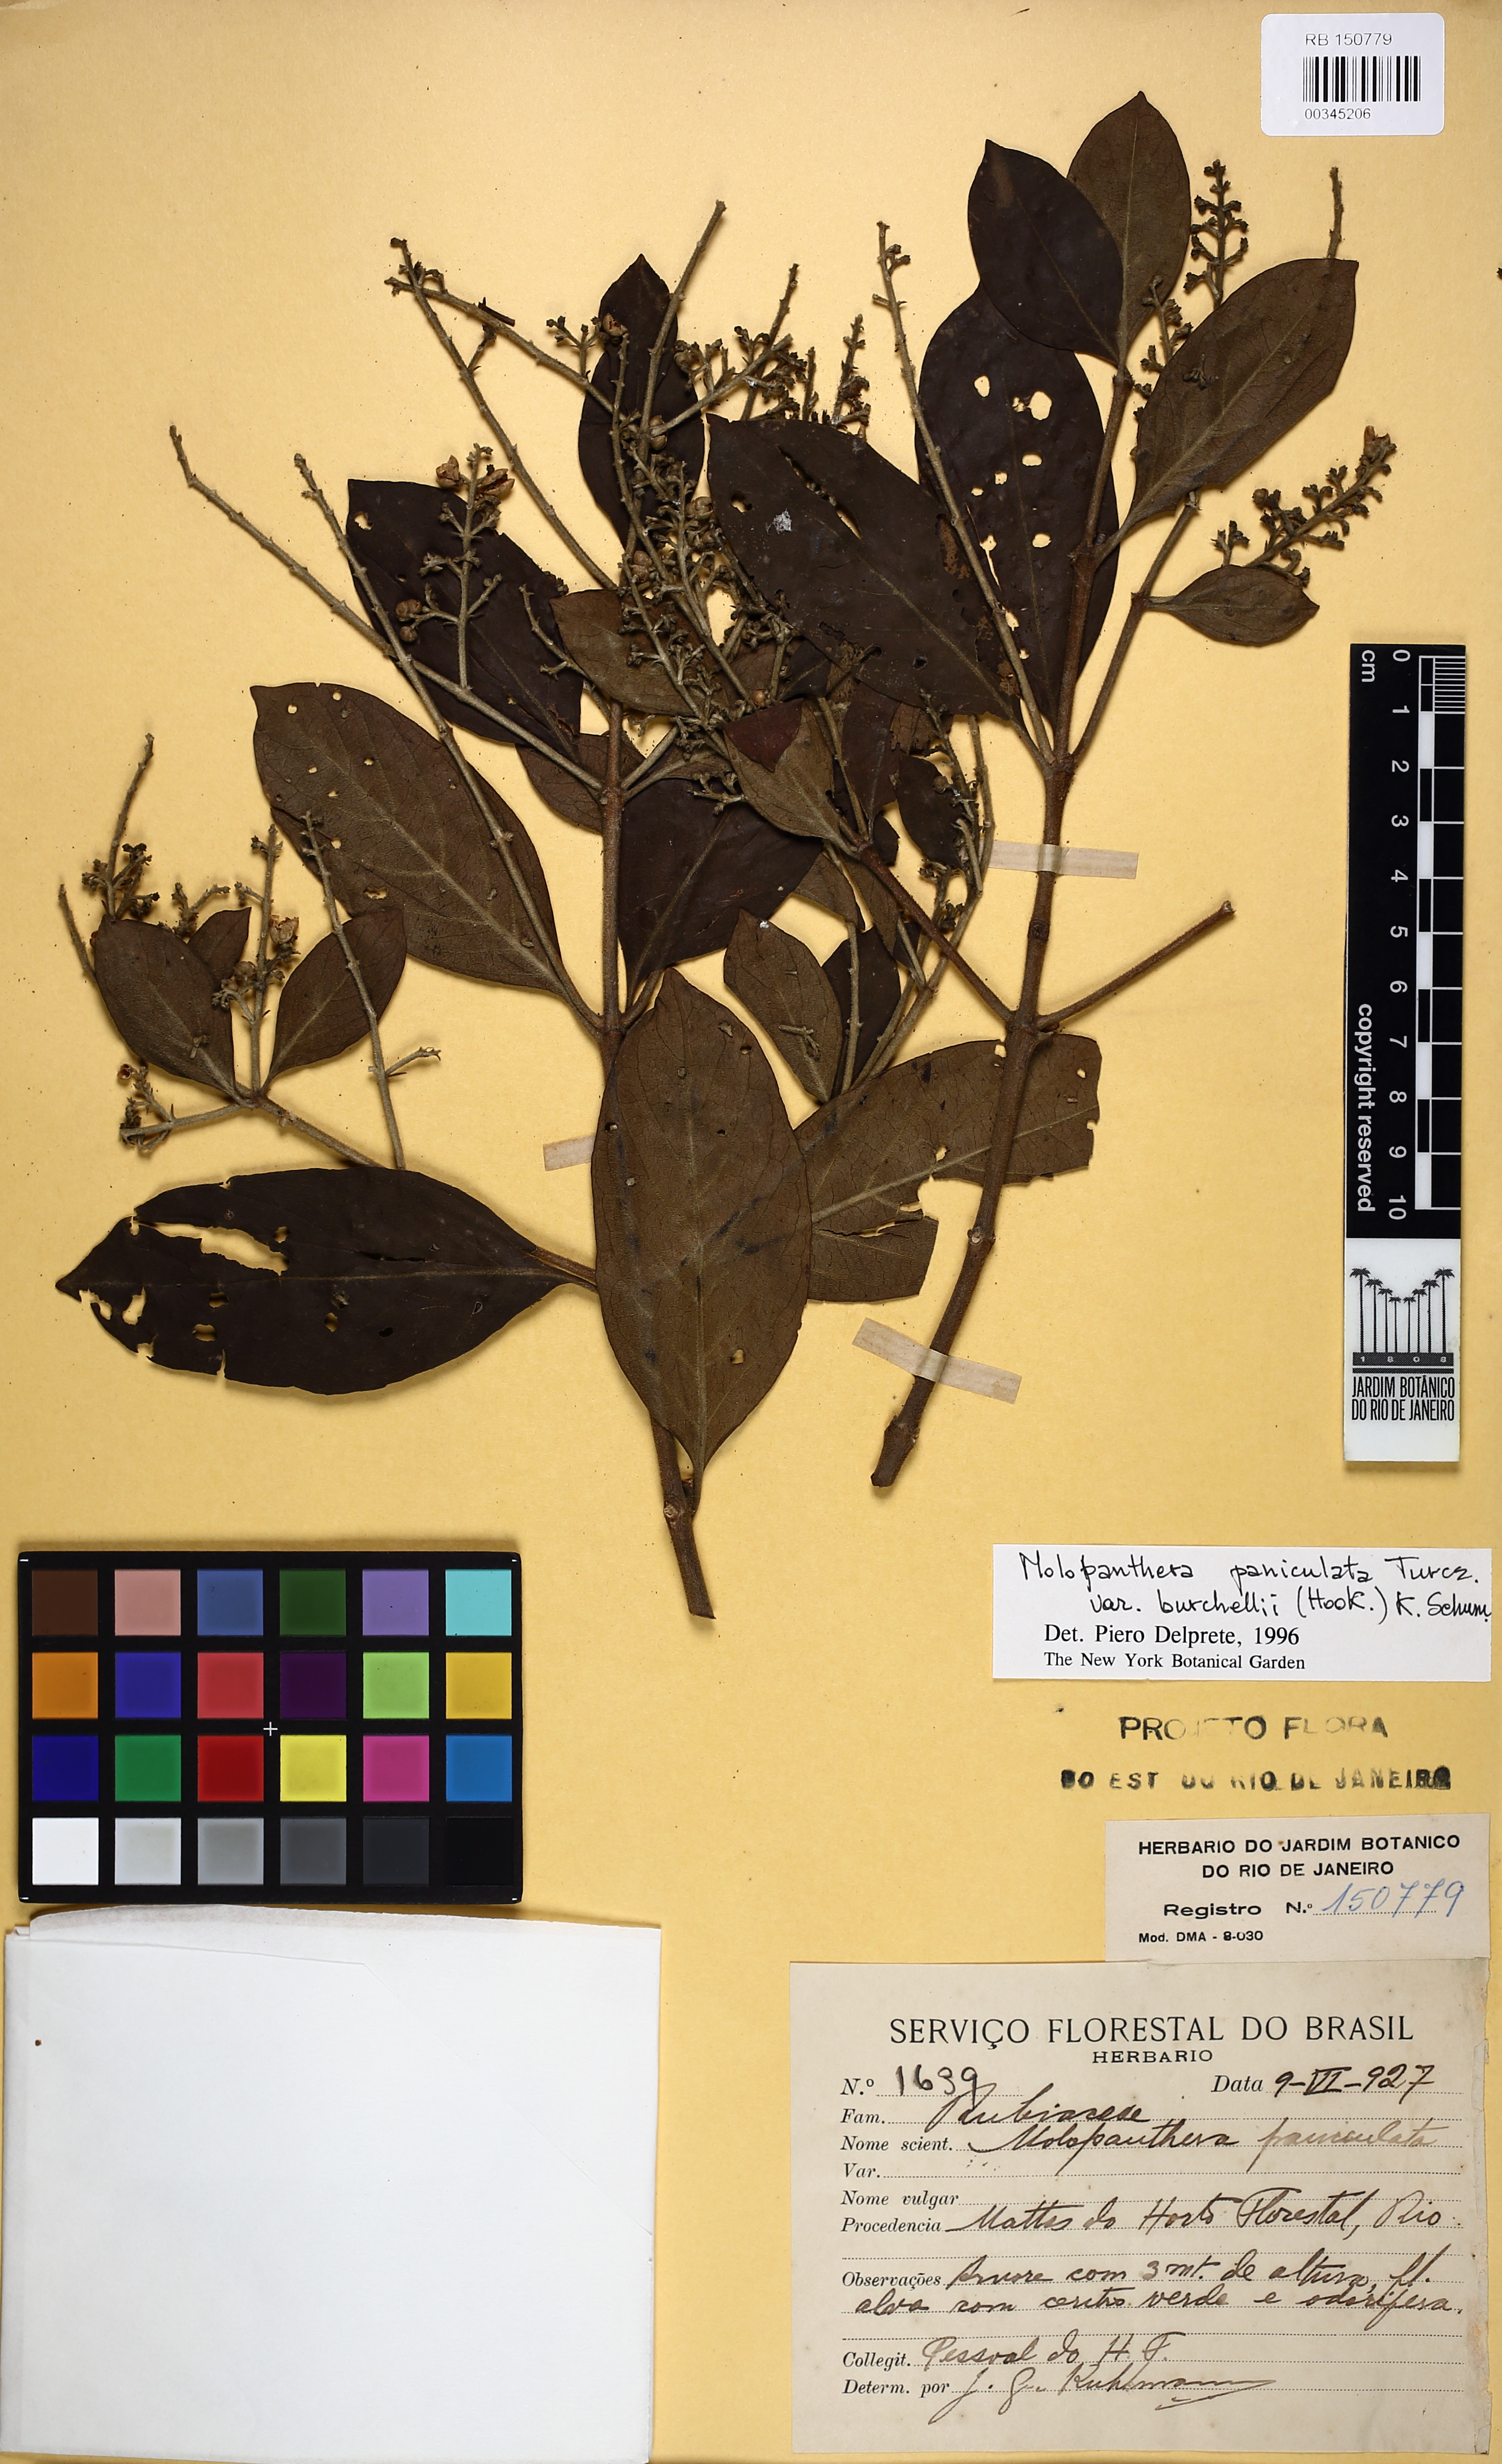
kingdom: Plantae
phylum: Tracheophyta
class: Magnoliopsida
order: Gentianales
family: Rubiaceae
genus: Molopanthera
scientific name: Molopanthera paniculata
